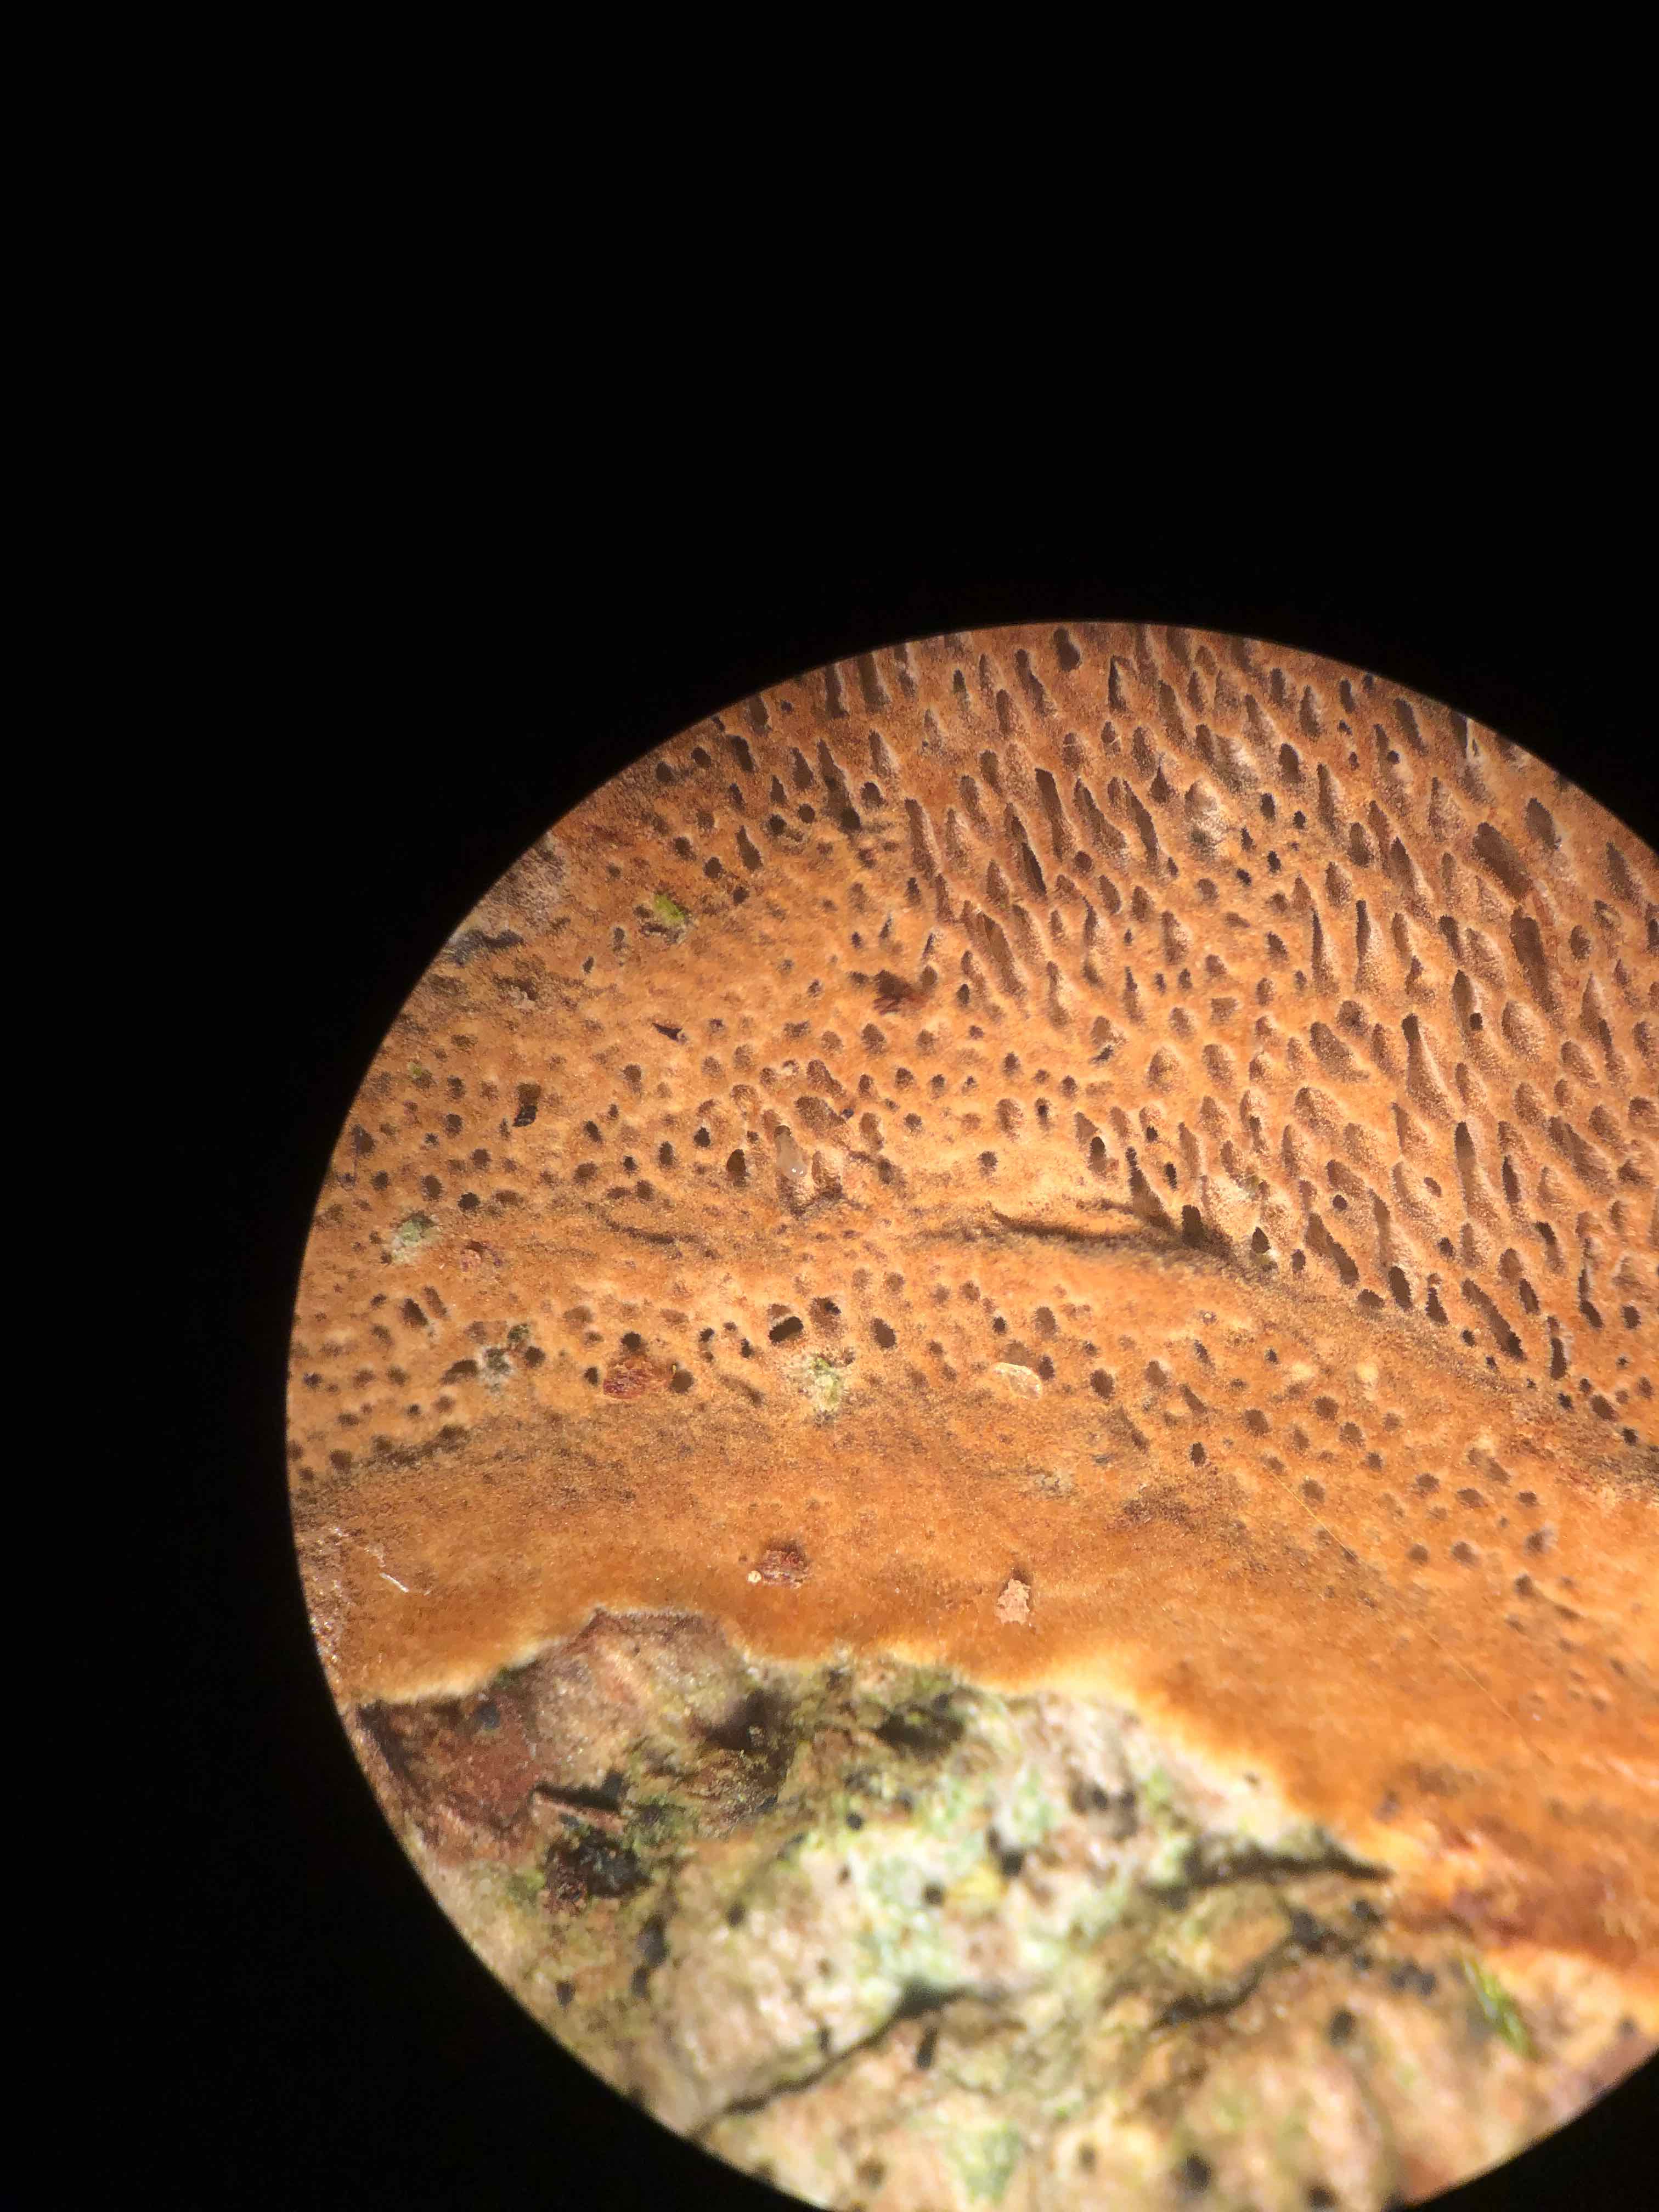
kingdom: Fungi
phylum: Basidiomycota
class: Agaricomycetes
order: Hymenochaetales
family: Hymenochaetaceae
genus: Fuscoporia
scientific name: Fuscoporia ferrea
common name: skorpe-ildporesvamp
